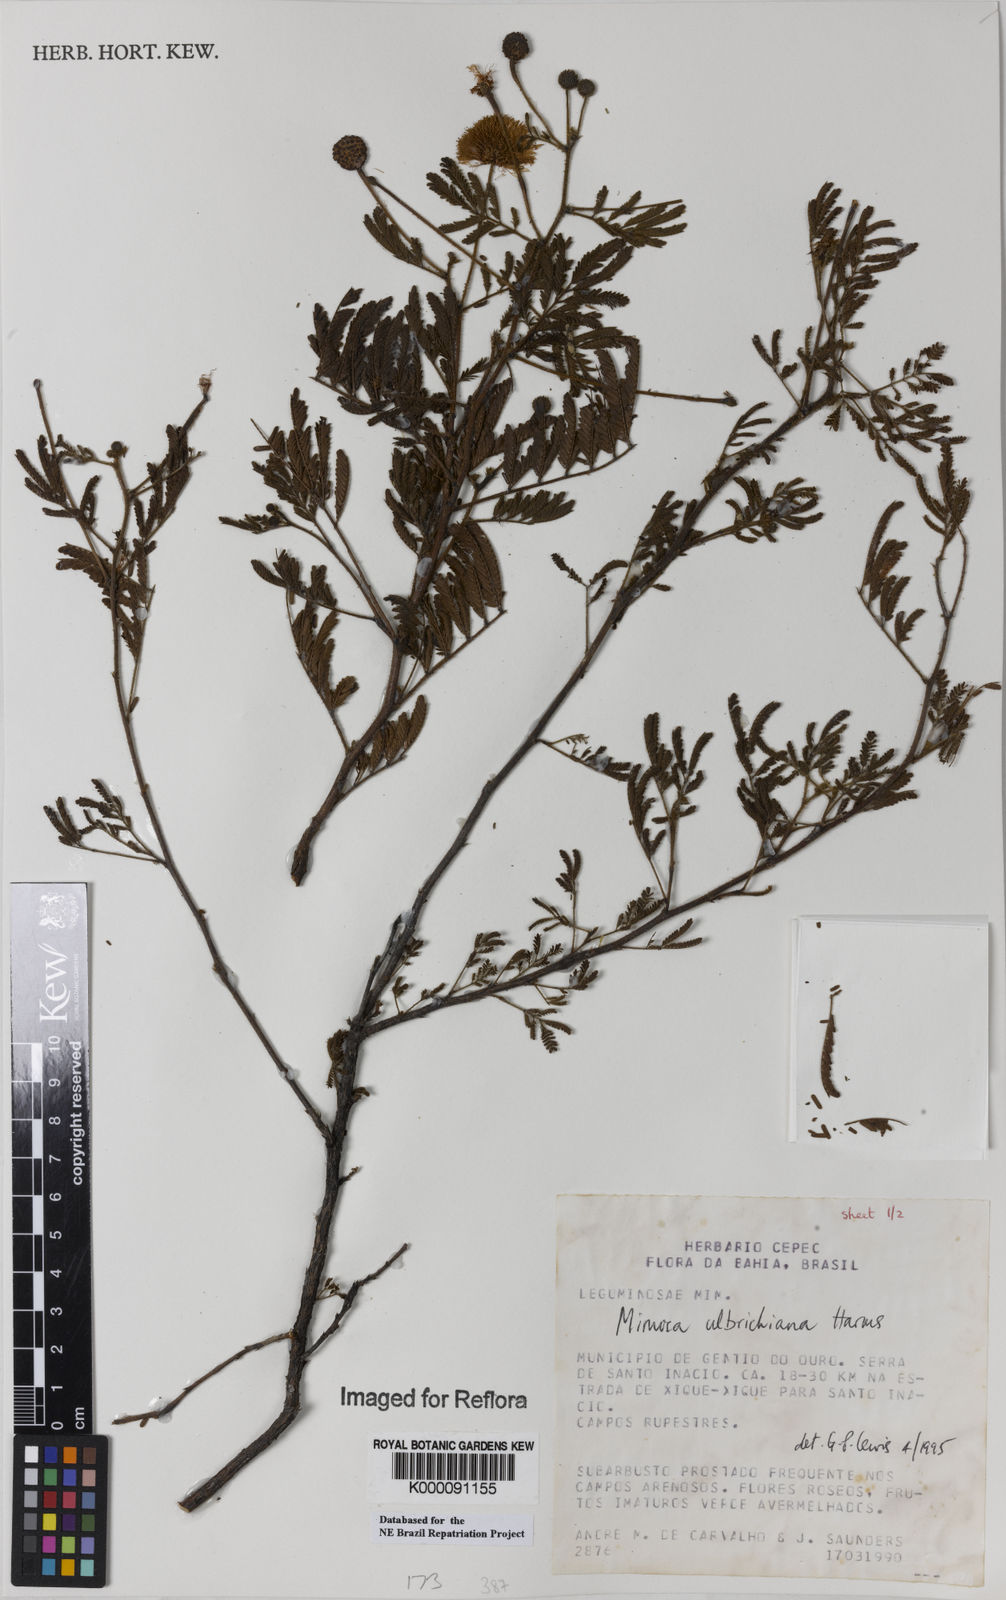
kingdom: Plantae
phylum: Tracheophyta
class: Magnoliopsida
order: Fabales
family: Fabaceae
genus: Mimosa
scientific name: Mimosa ulbrichiana
